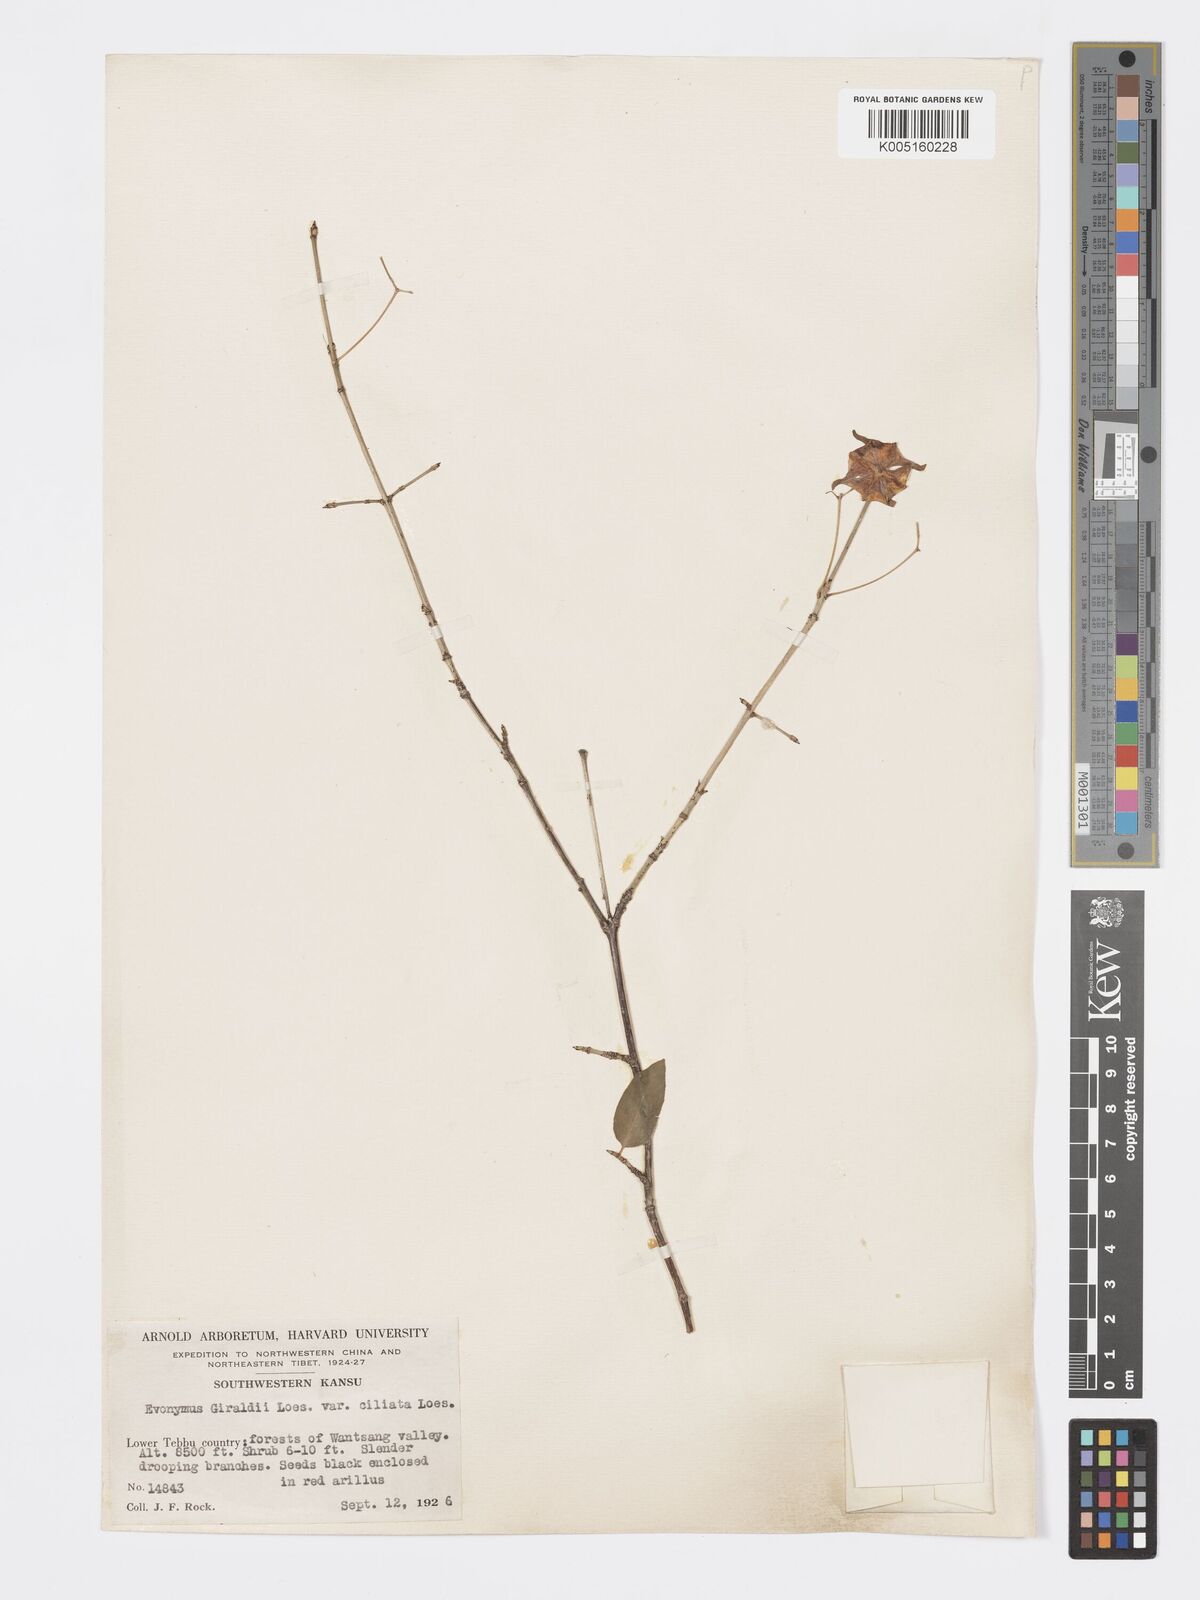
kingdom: Plantae
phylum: Tracheophyta
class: Magnoliopsida
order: Celastrales
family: Celastraceae
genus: Euonymus
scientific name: Euonymus giraldii
